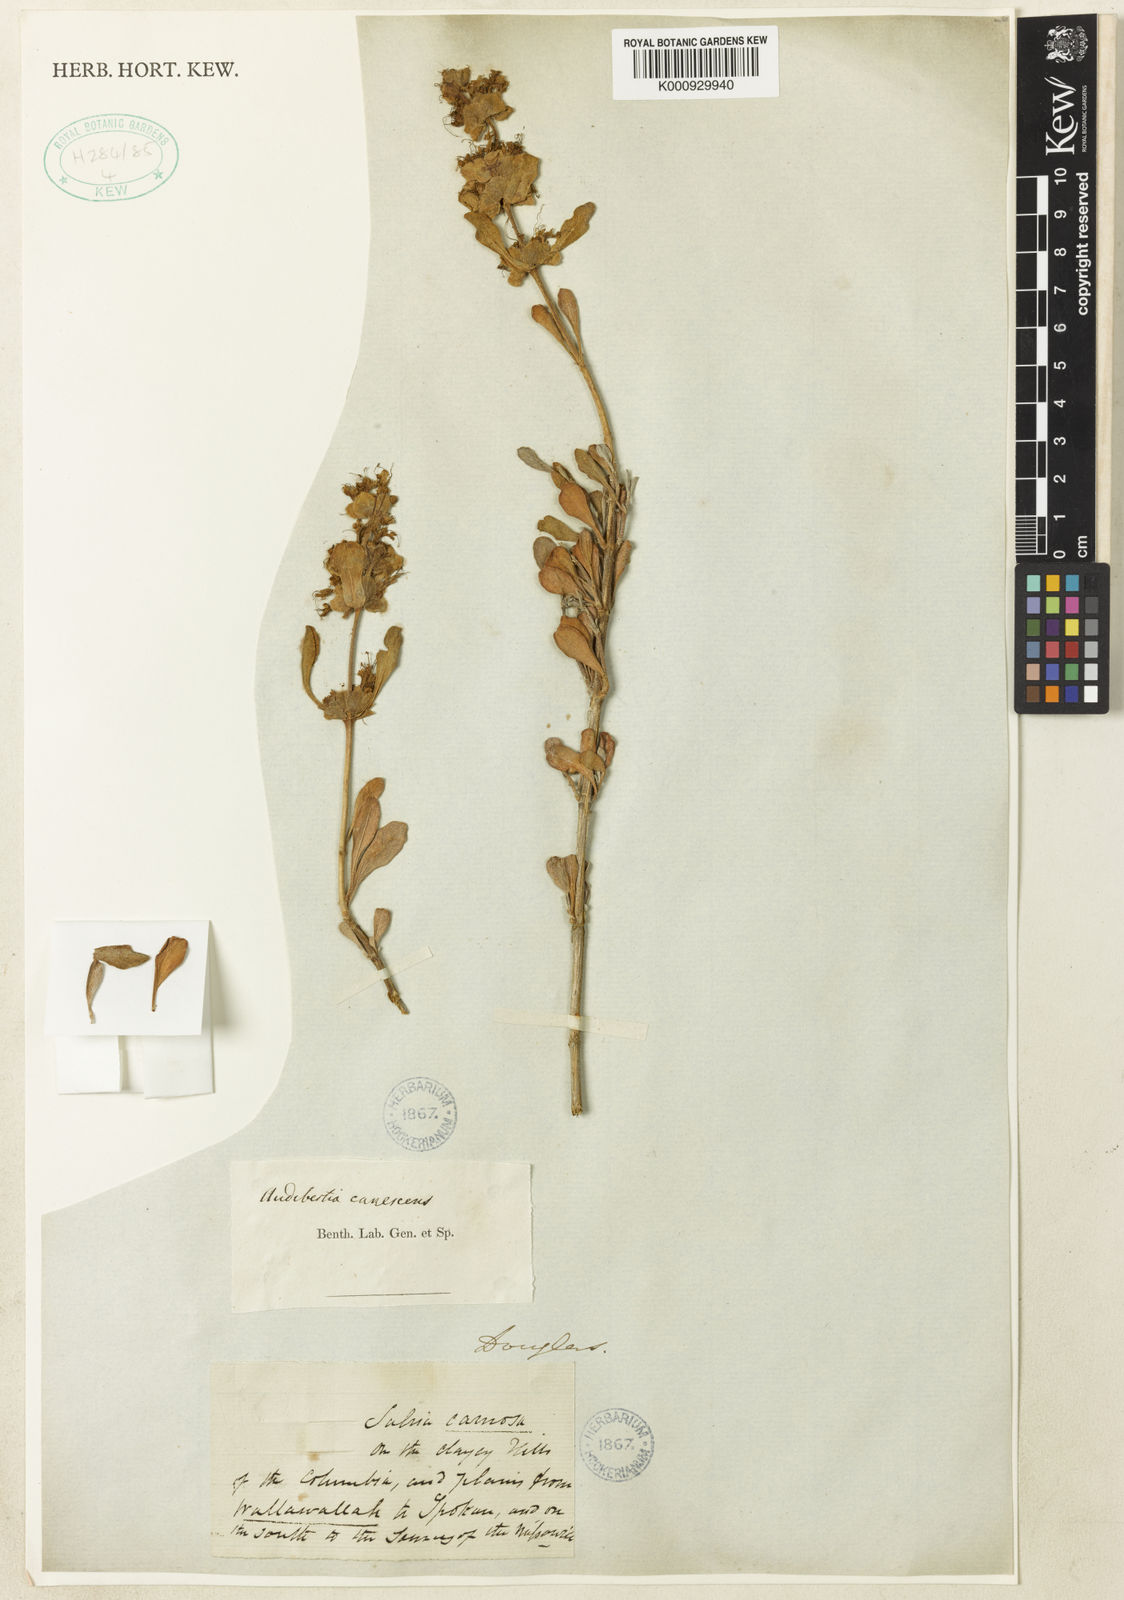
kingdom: Plantae
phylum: Tracheophyta
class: Magnoliopsida
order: Lamiales
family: Lamiaceae
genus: Salvia
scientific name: Salvia
